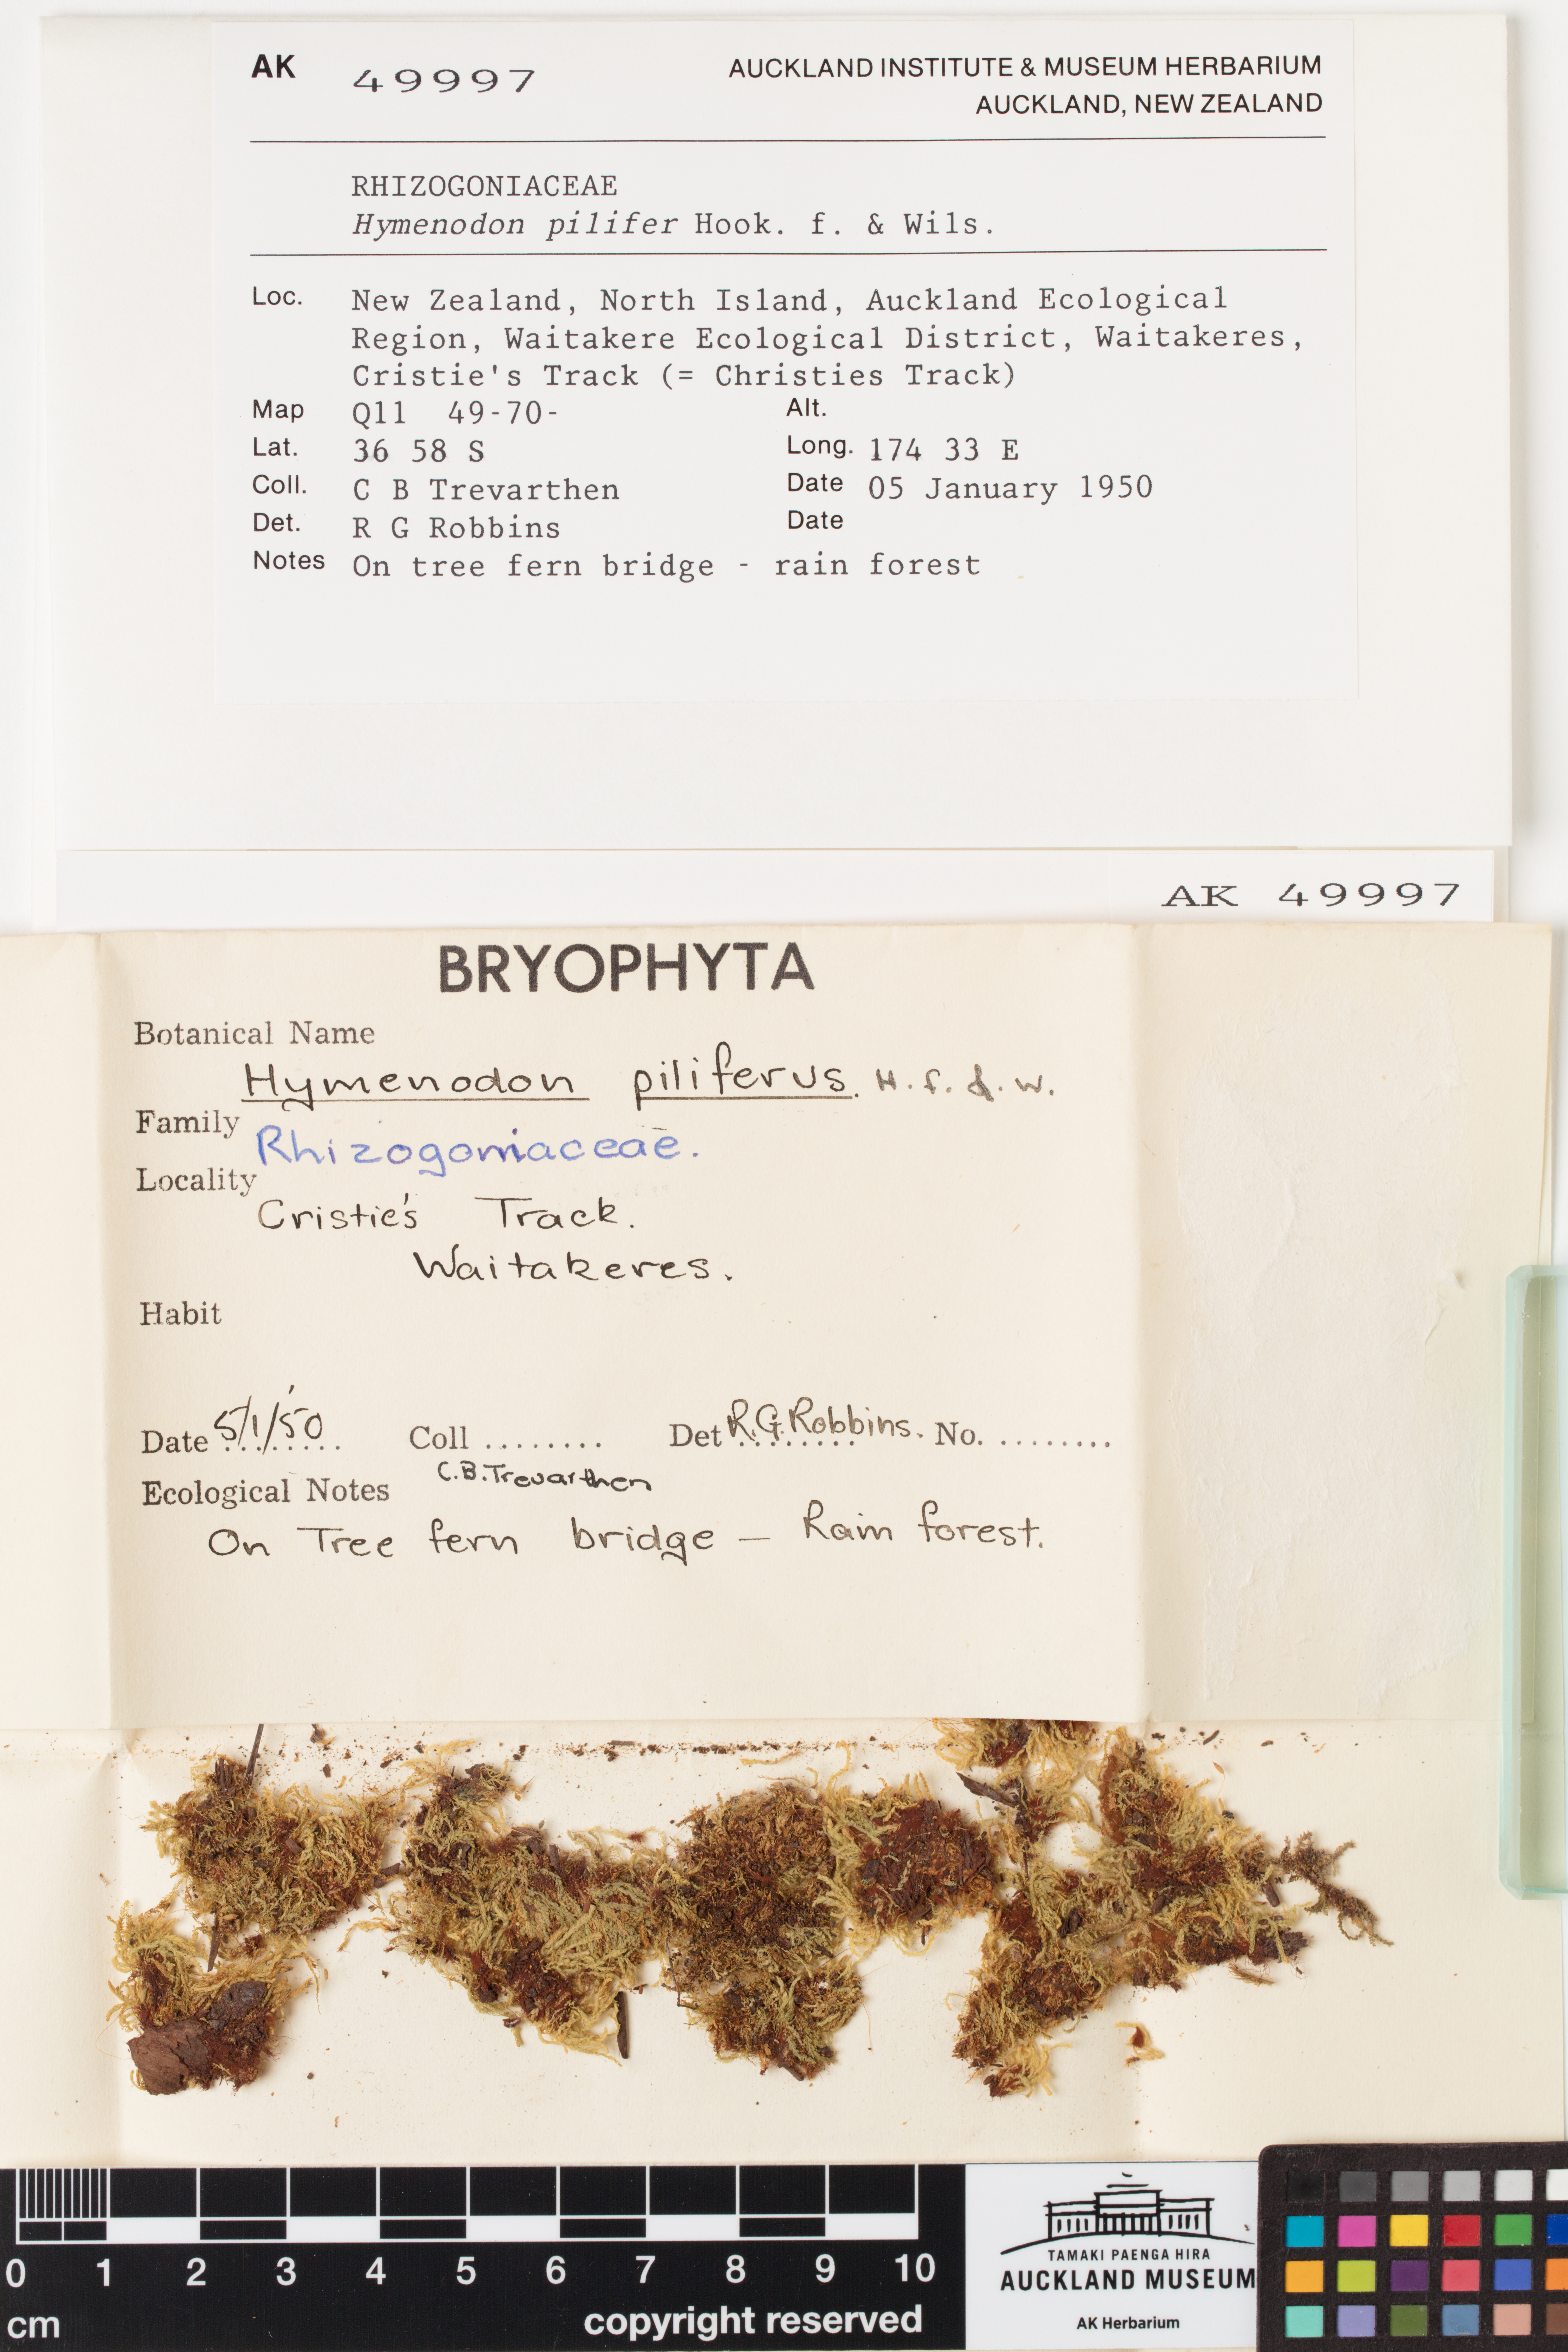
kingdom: Plantae
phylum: Bryophyta
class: Bryopsida
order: Orthodontiales
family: Orthodontiaceae
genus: Hymenodon
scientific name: Hymenodon pilifer
